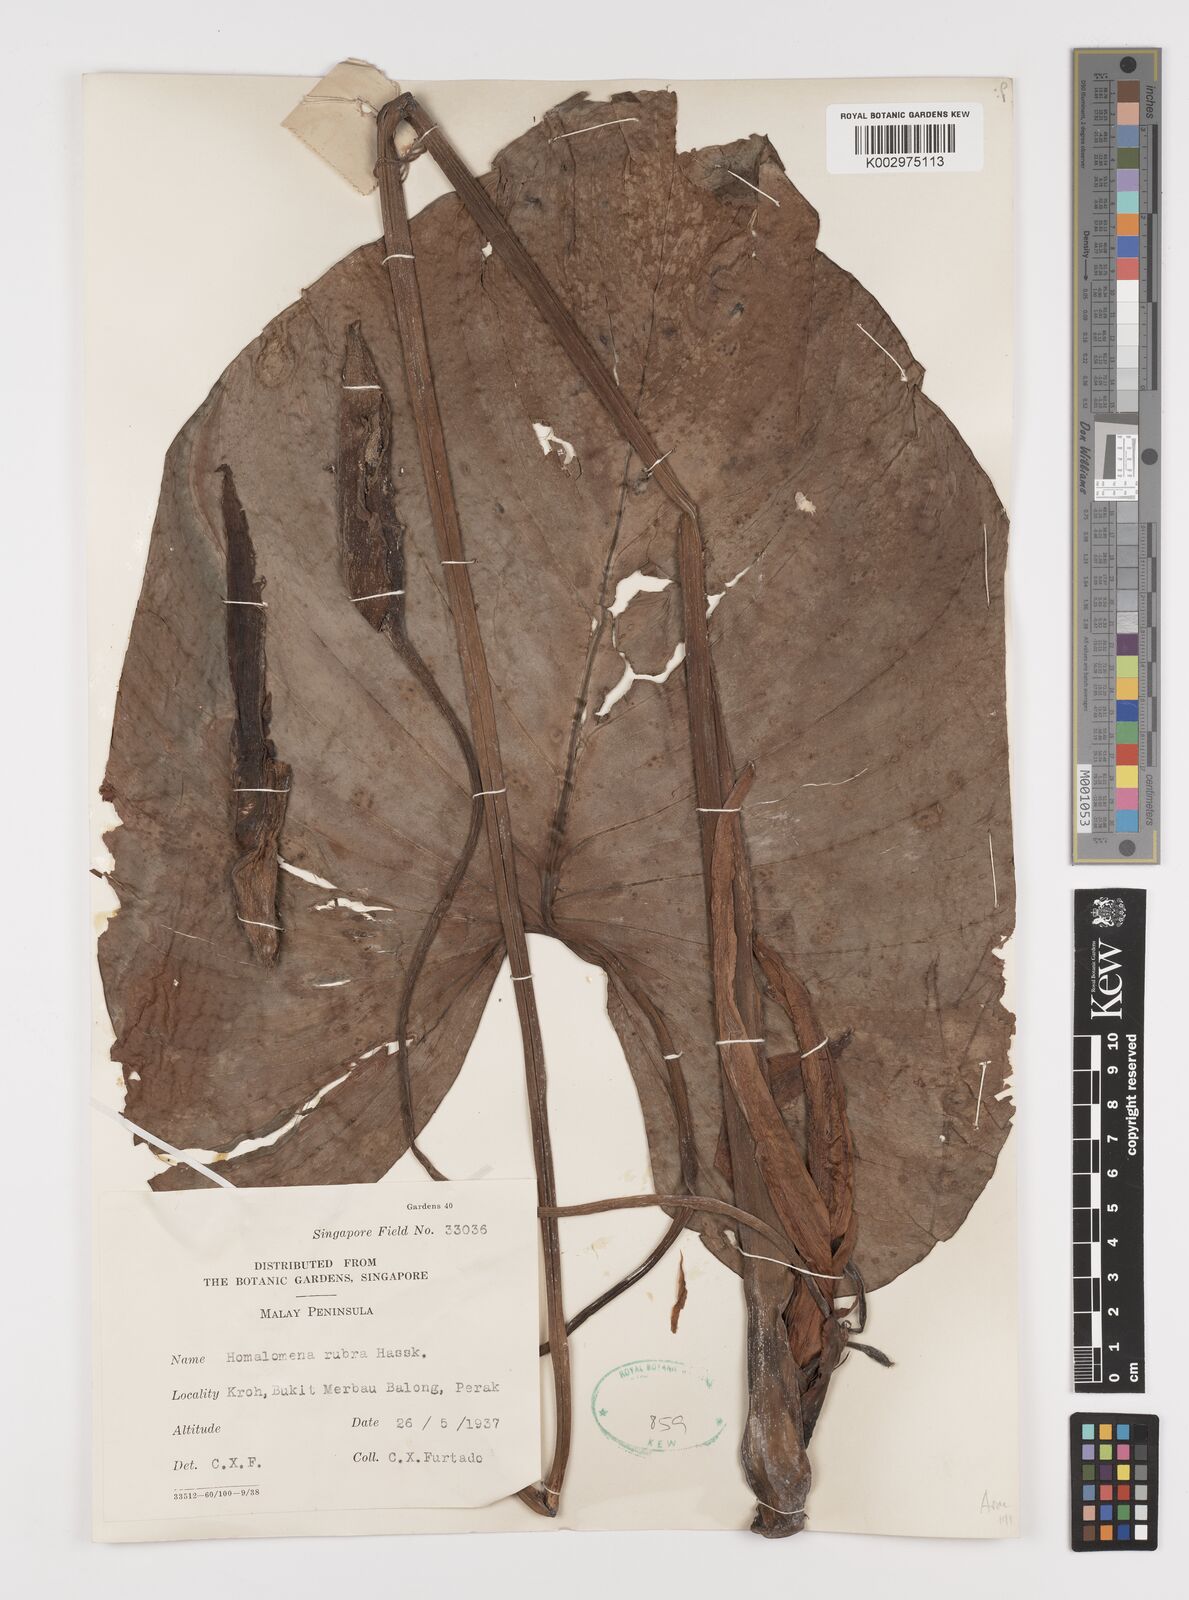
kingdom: Plantae
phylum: Tracheophyta
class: Liliopsida
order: Alismatales
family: Araceae
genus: Homalomena
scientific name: Homalomena pendula
